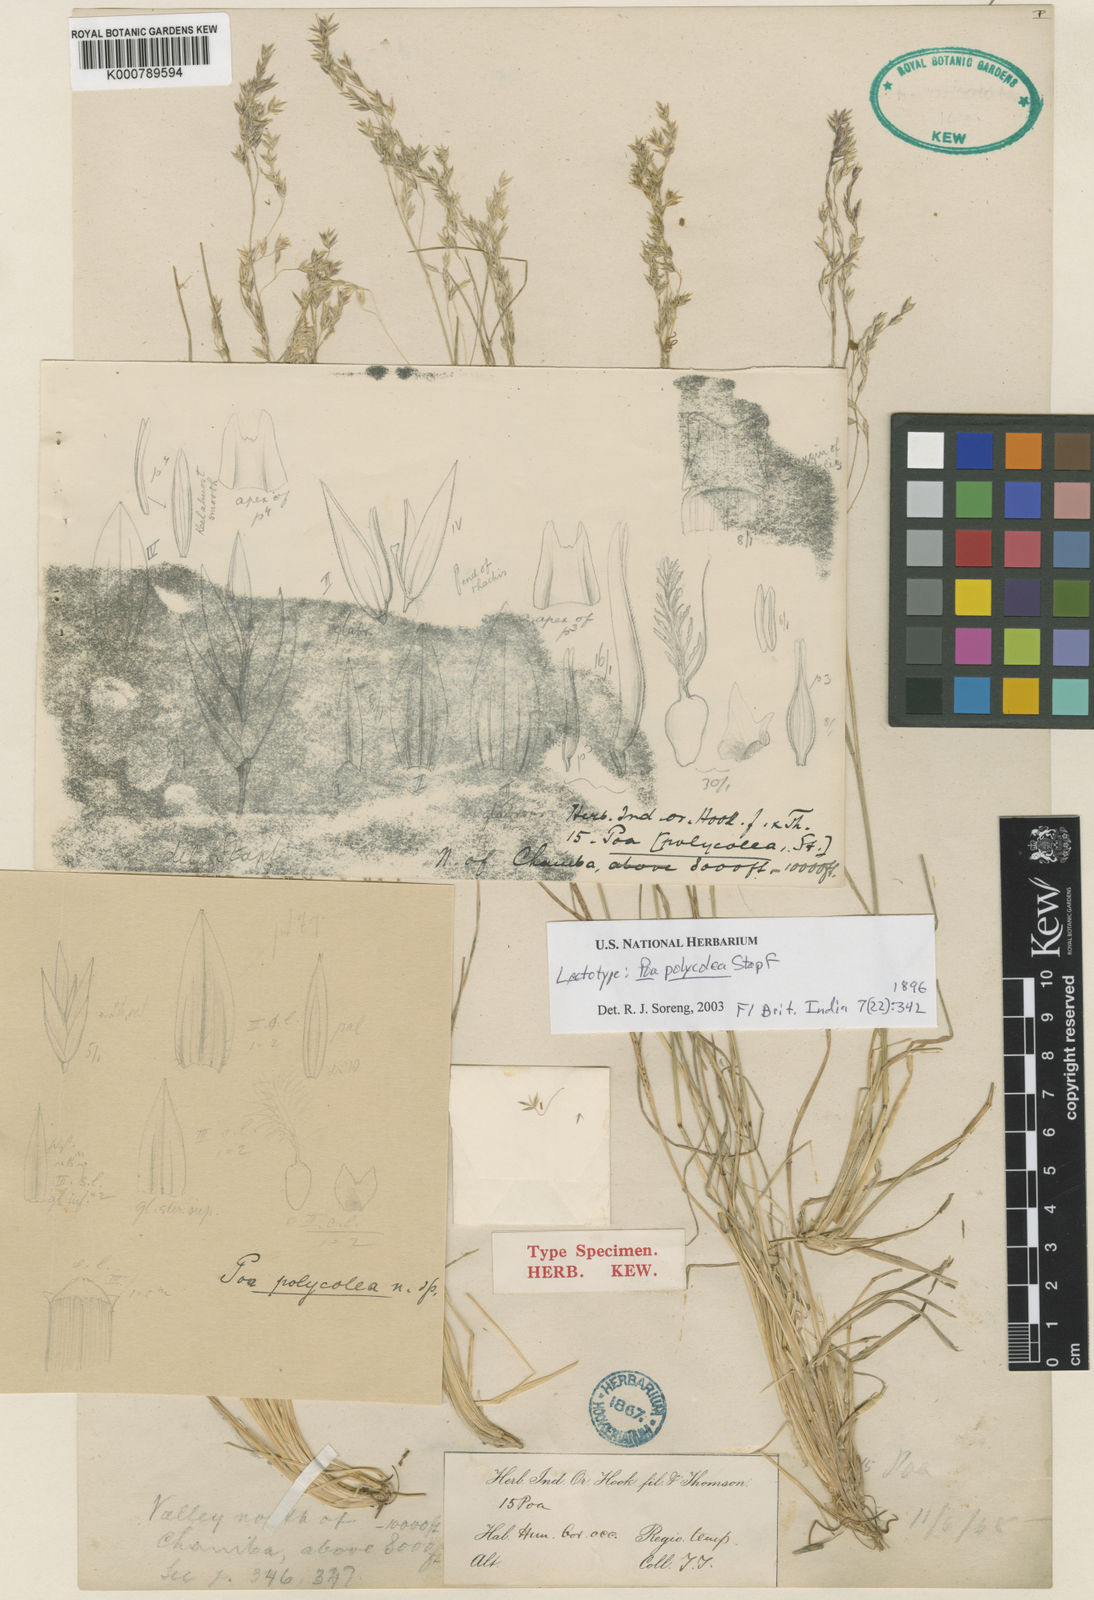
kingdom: Plantae
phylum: Tracheophyta
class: Liliopsida
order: Poales
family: Poaceae
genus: Poa
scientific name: Poa polycolea
